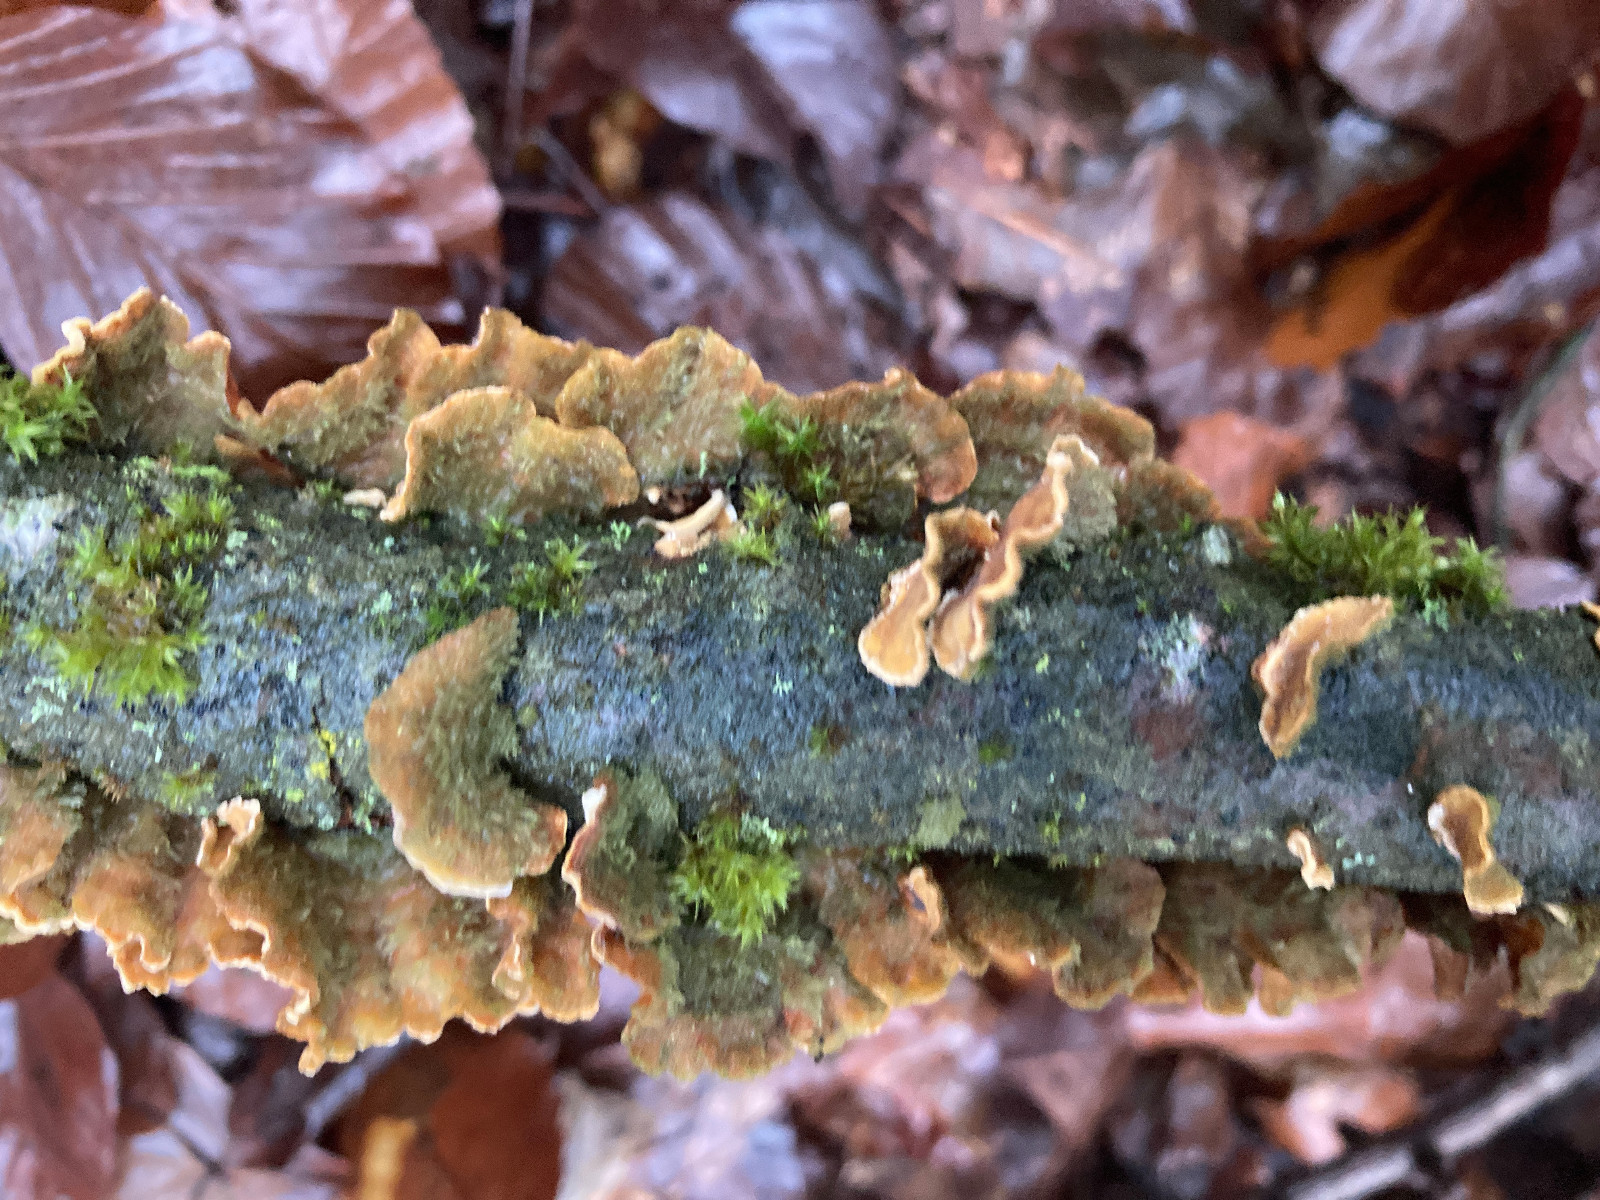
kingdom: Fungi
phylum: Basidiomycota
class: Agaricomycetes
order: Russulales
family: Stereaceae
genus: Stereum
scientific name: Stereum hirsutum
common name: håret lædersvamp
